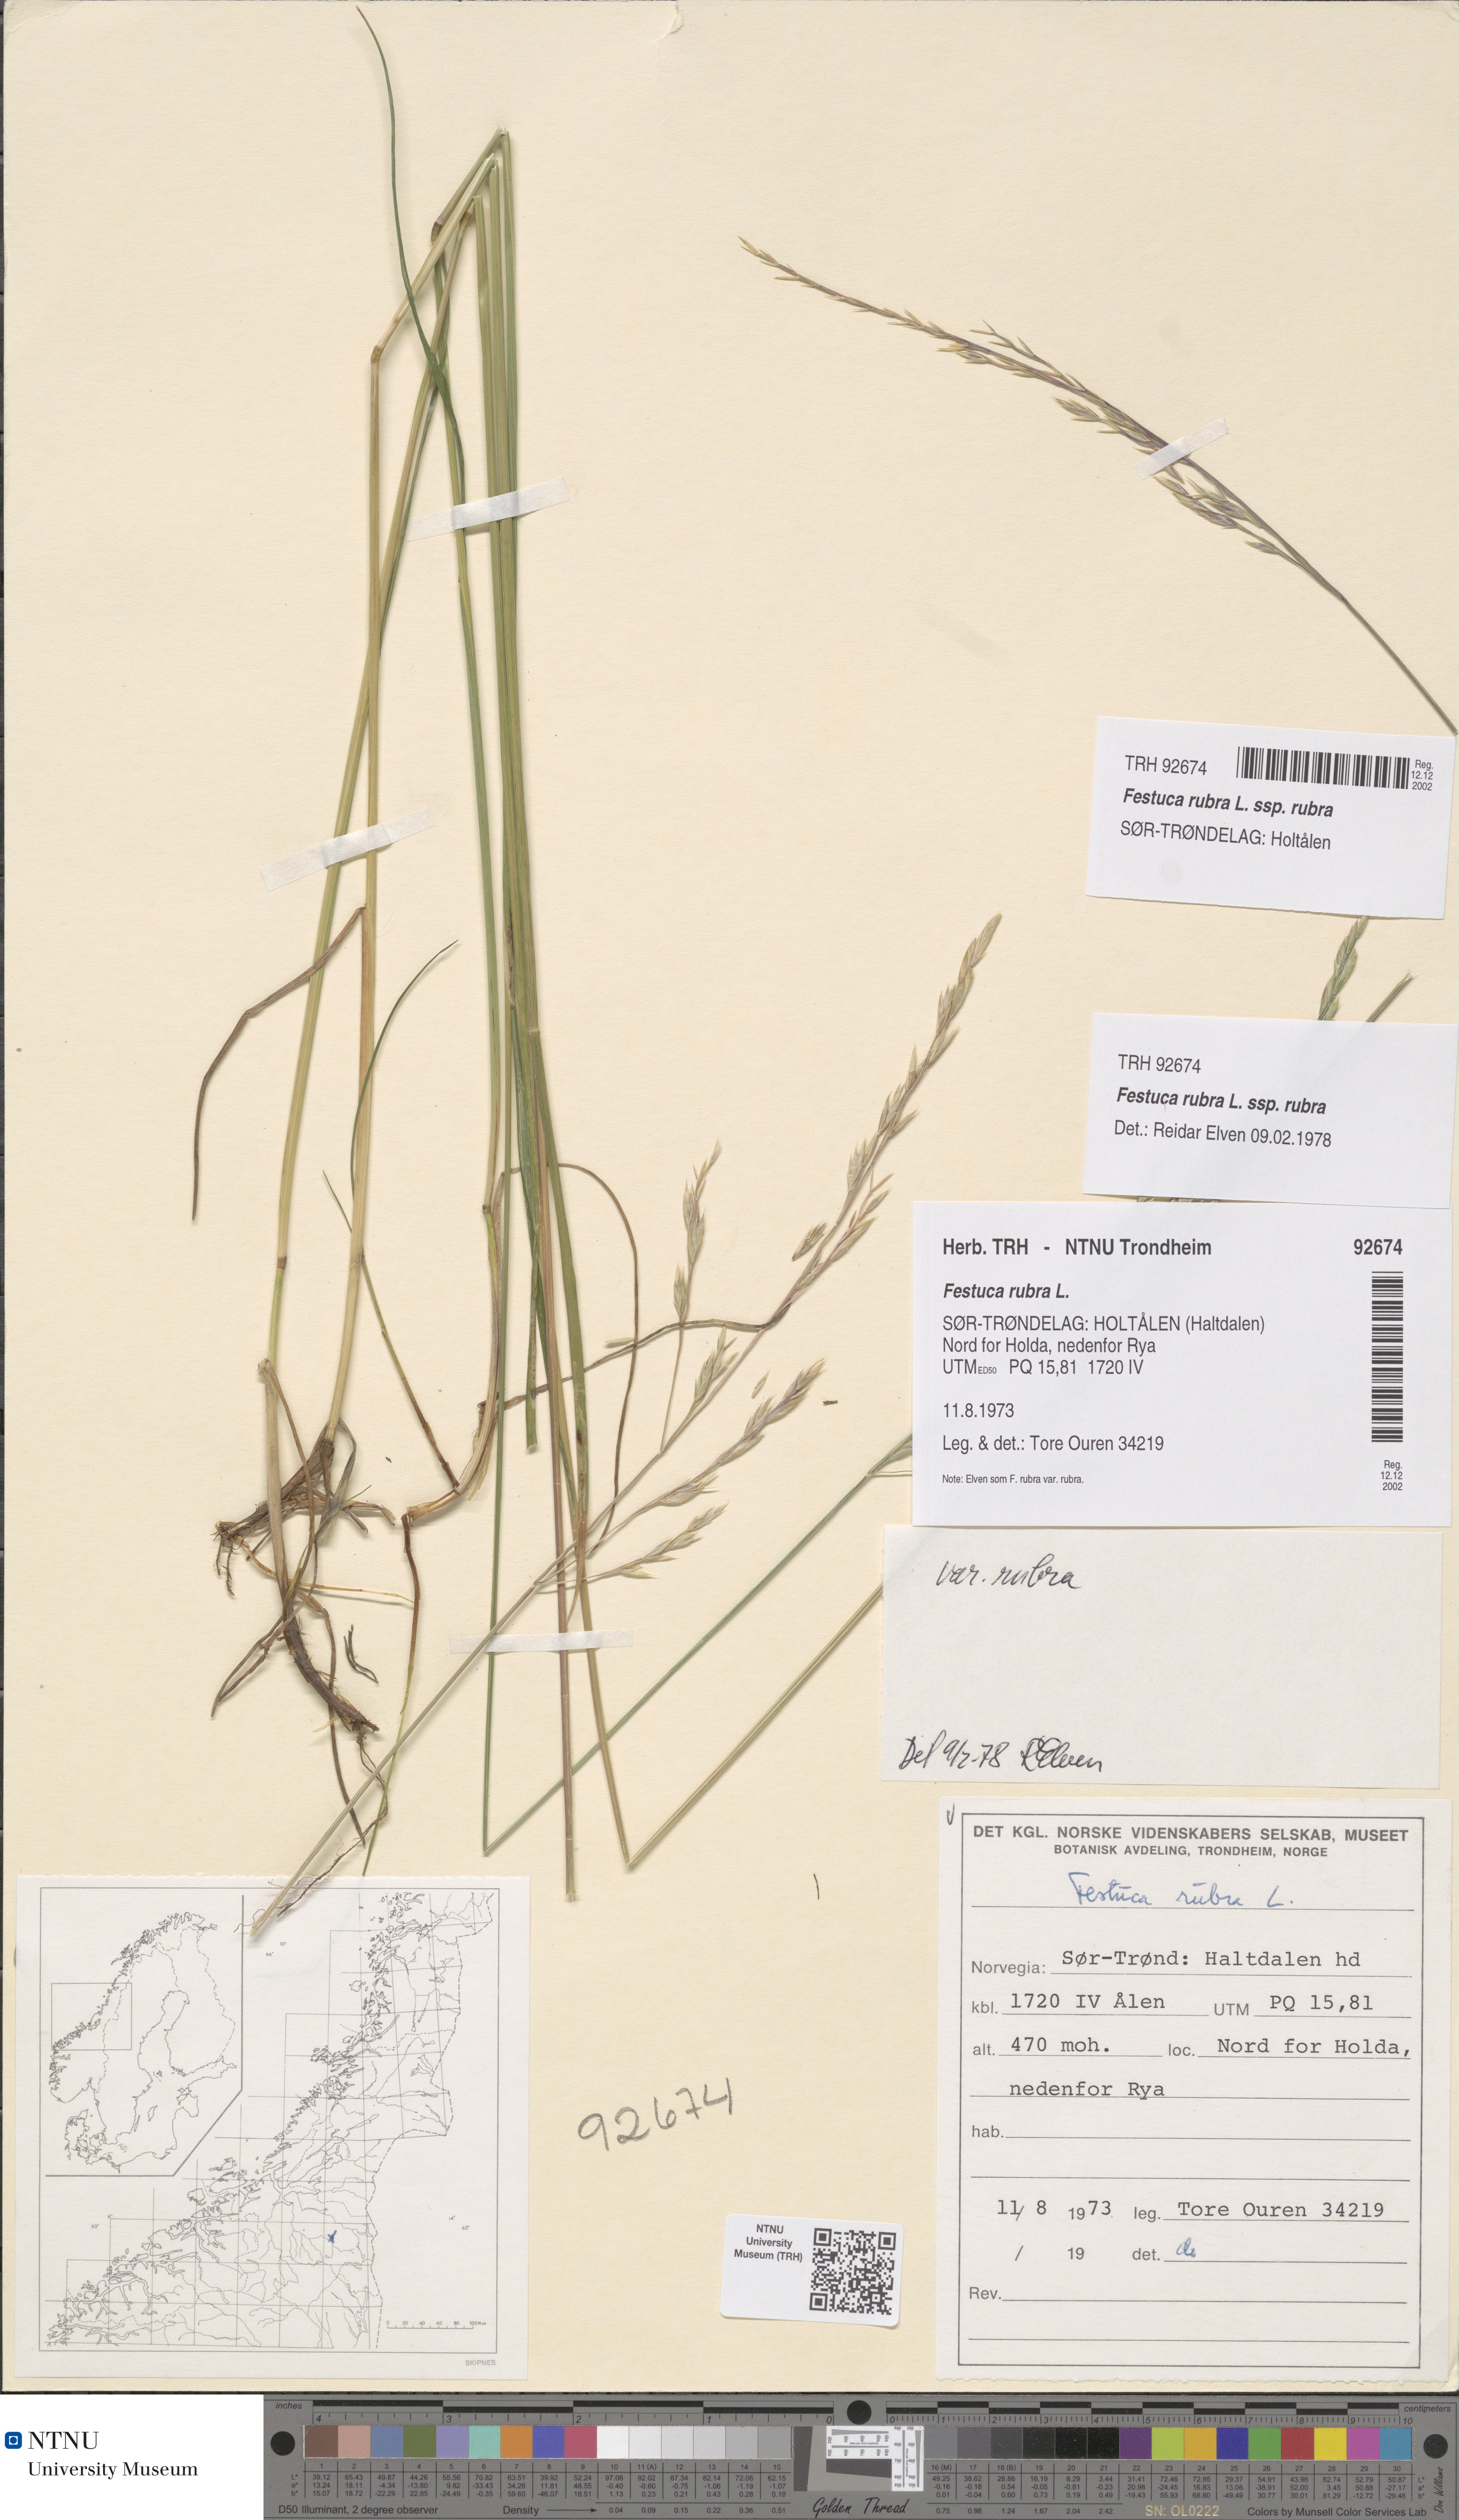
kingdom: Plantae
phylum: Tracheophyta
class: Liliopsida
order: Poales
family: Poaceae
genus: Festuca
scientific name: Festuca rubra
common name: Red fescue
